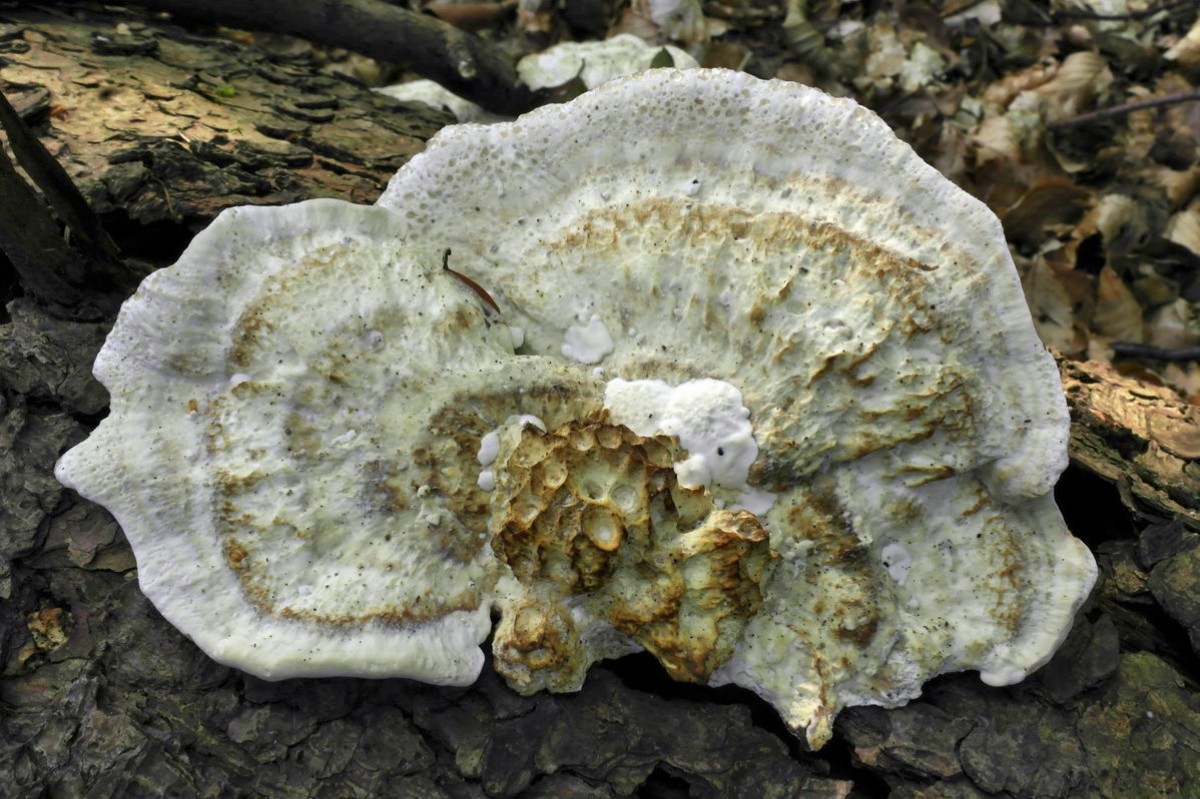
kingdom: Fungi
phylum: Basidiomycota
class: Agaricomycetes
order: Polyporales
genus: Calcipostia
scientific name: Calcipostia guttulata
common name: dråbe-kødporesvamp
